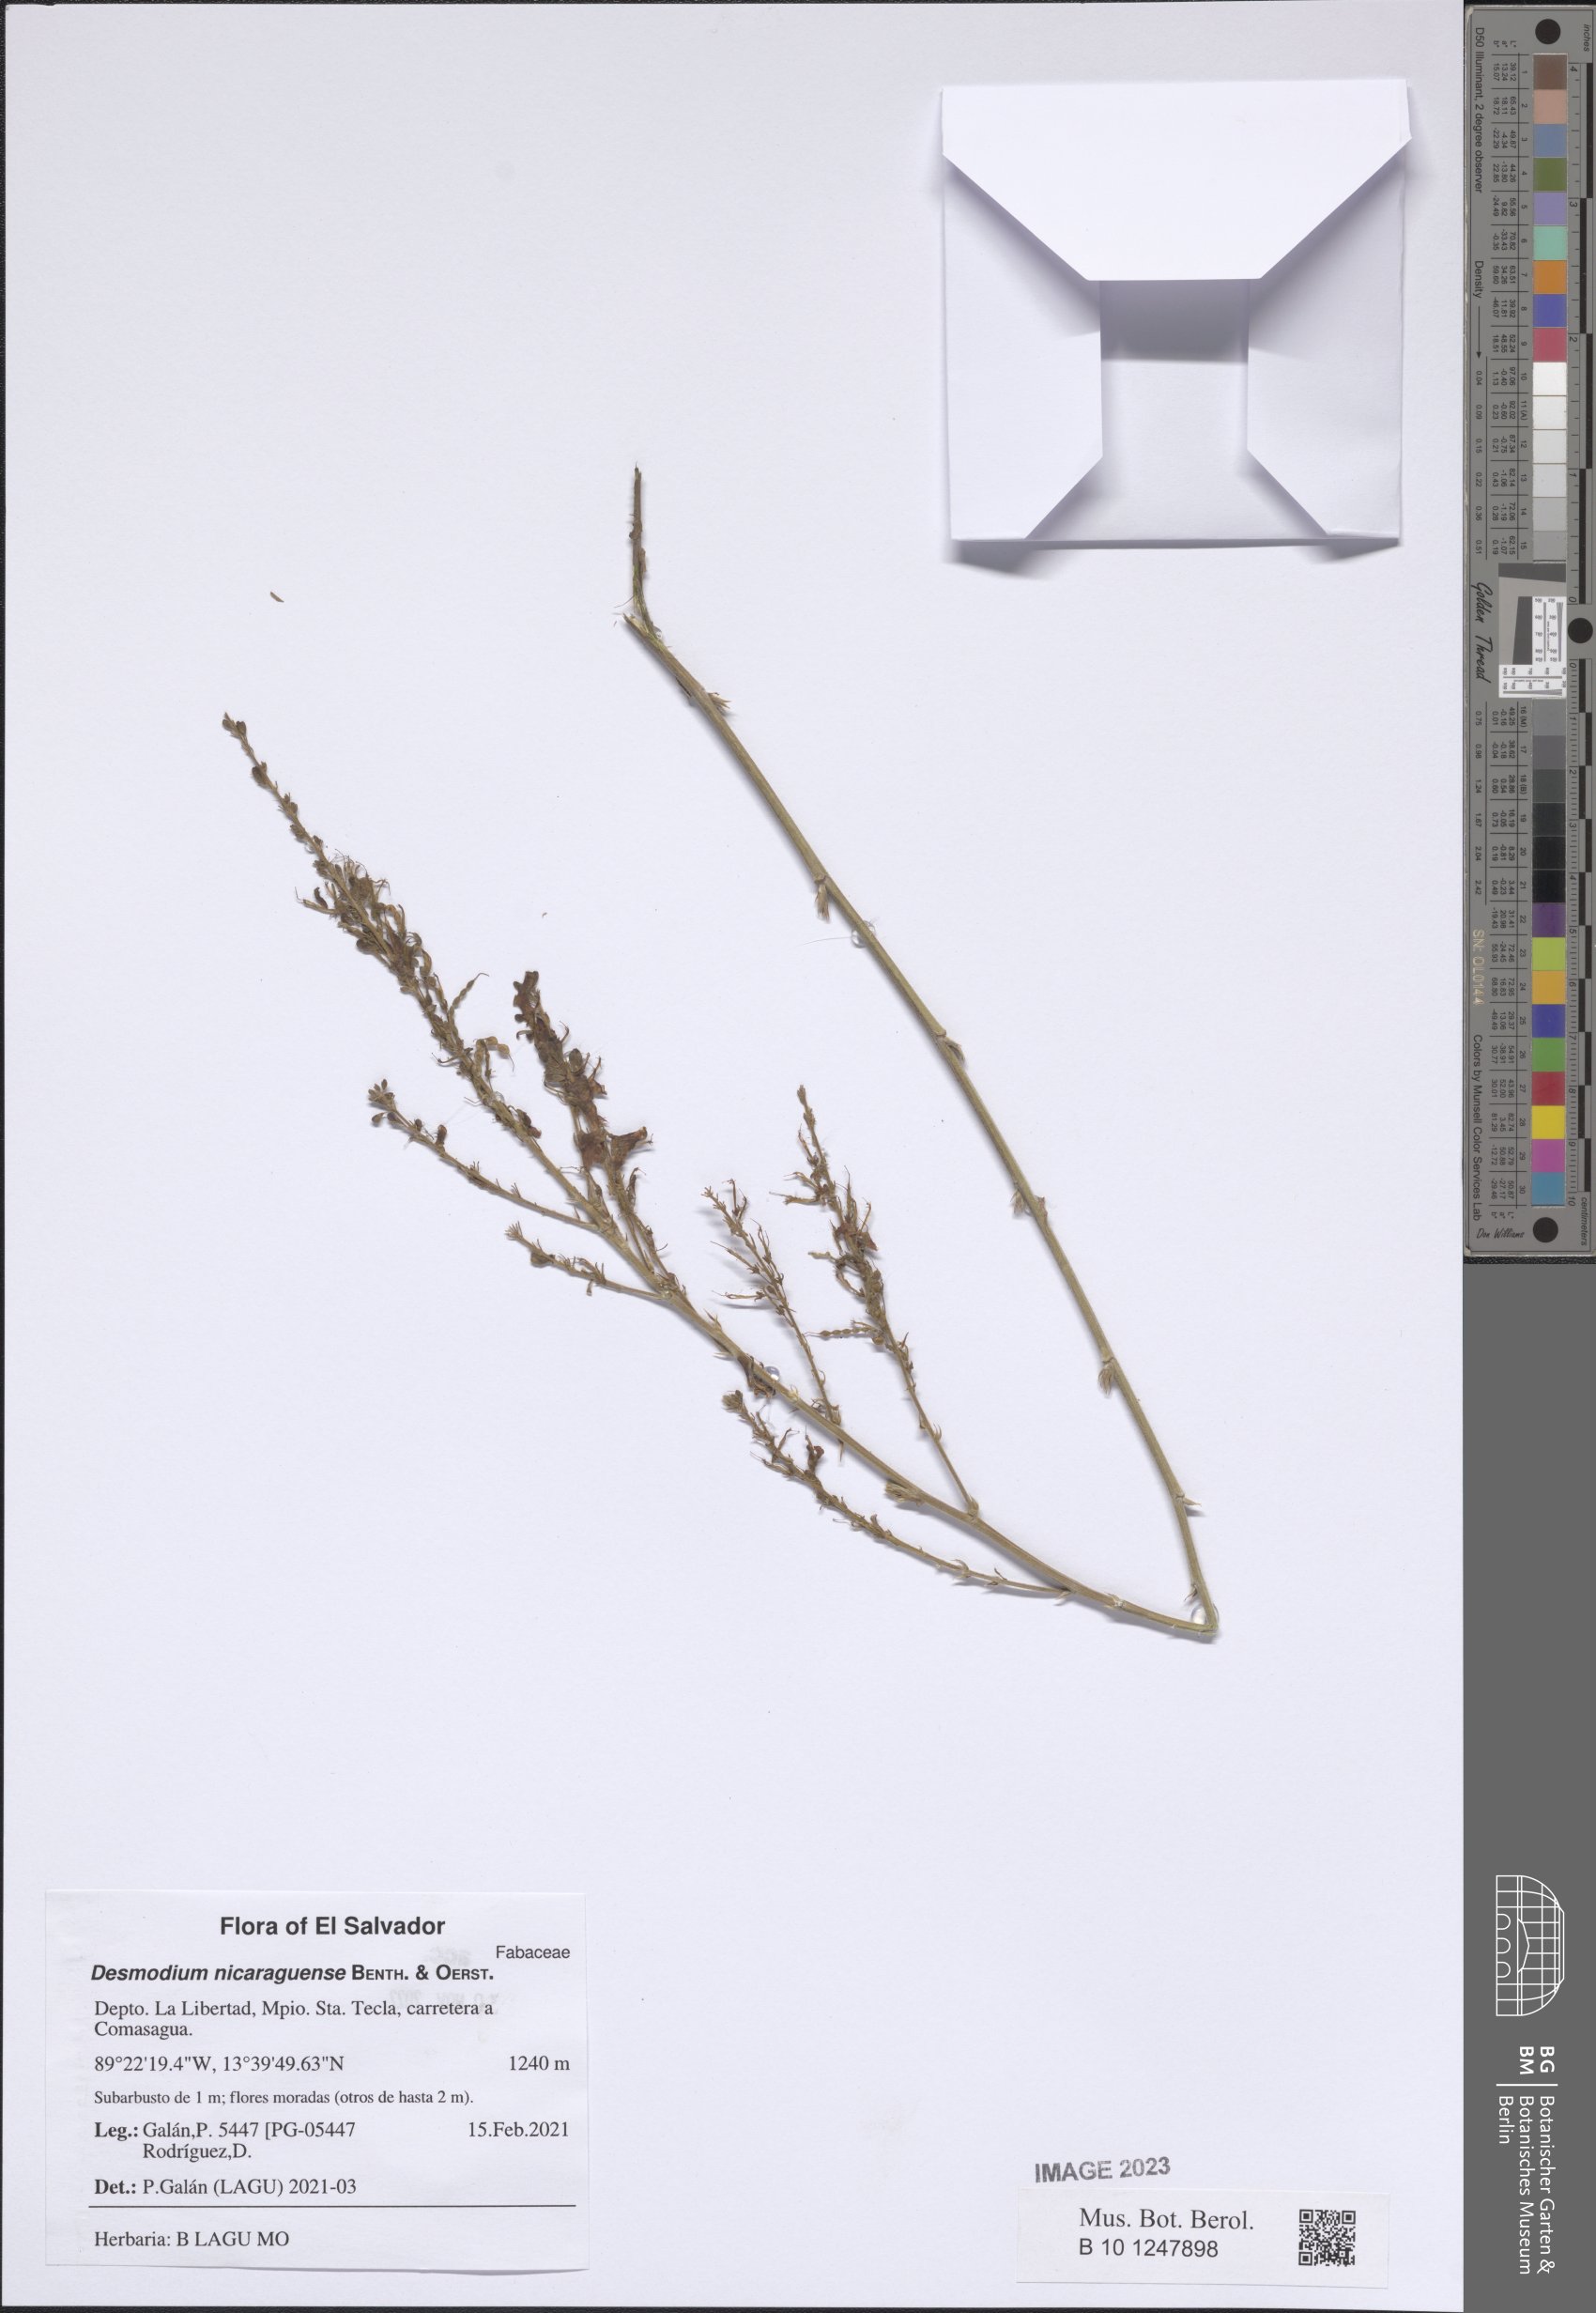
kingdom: Plantae
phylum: Tracheophyta
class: Magnoliopsida
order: Fabales
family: Fabaceae
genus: Desmodium
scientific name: Desmodium nicaraguense
